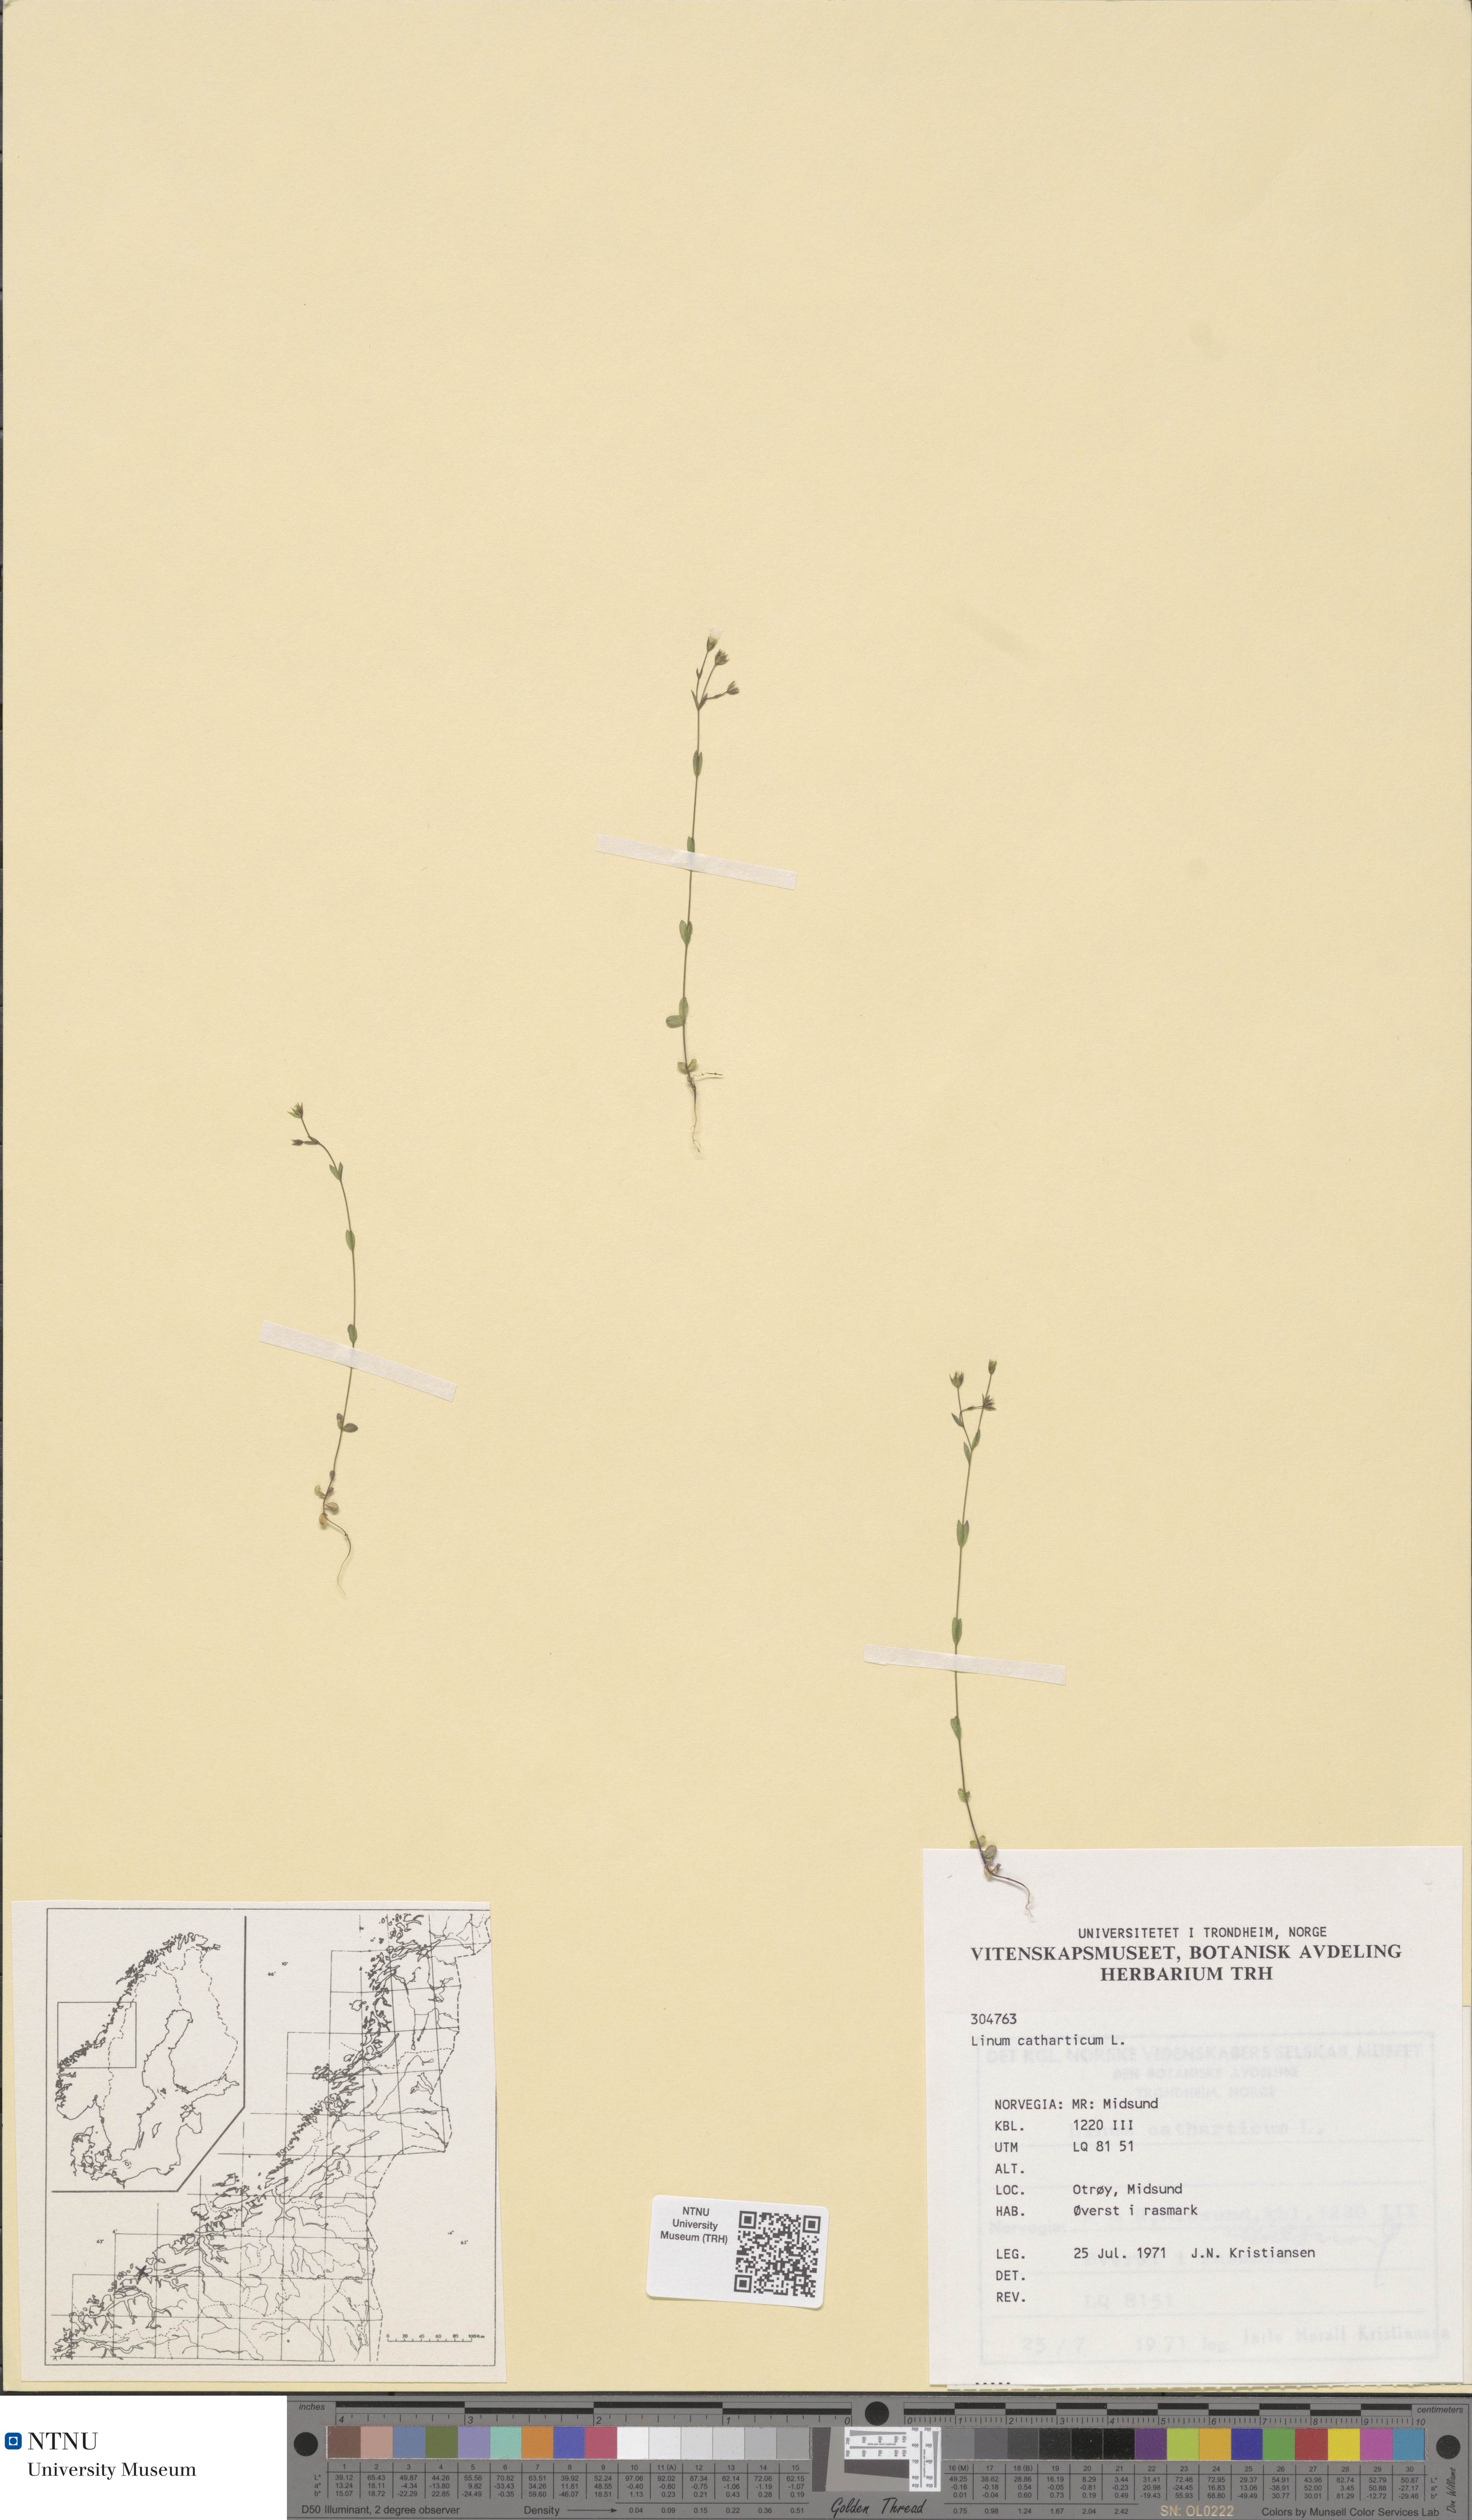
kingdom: Plantae
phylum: Tracheophyta
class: Magnoliopsida
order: Malpighiales
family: Linaceae
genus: Linum
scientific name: Linum catharticum
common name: Fairy flax
